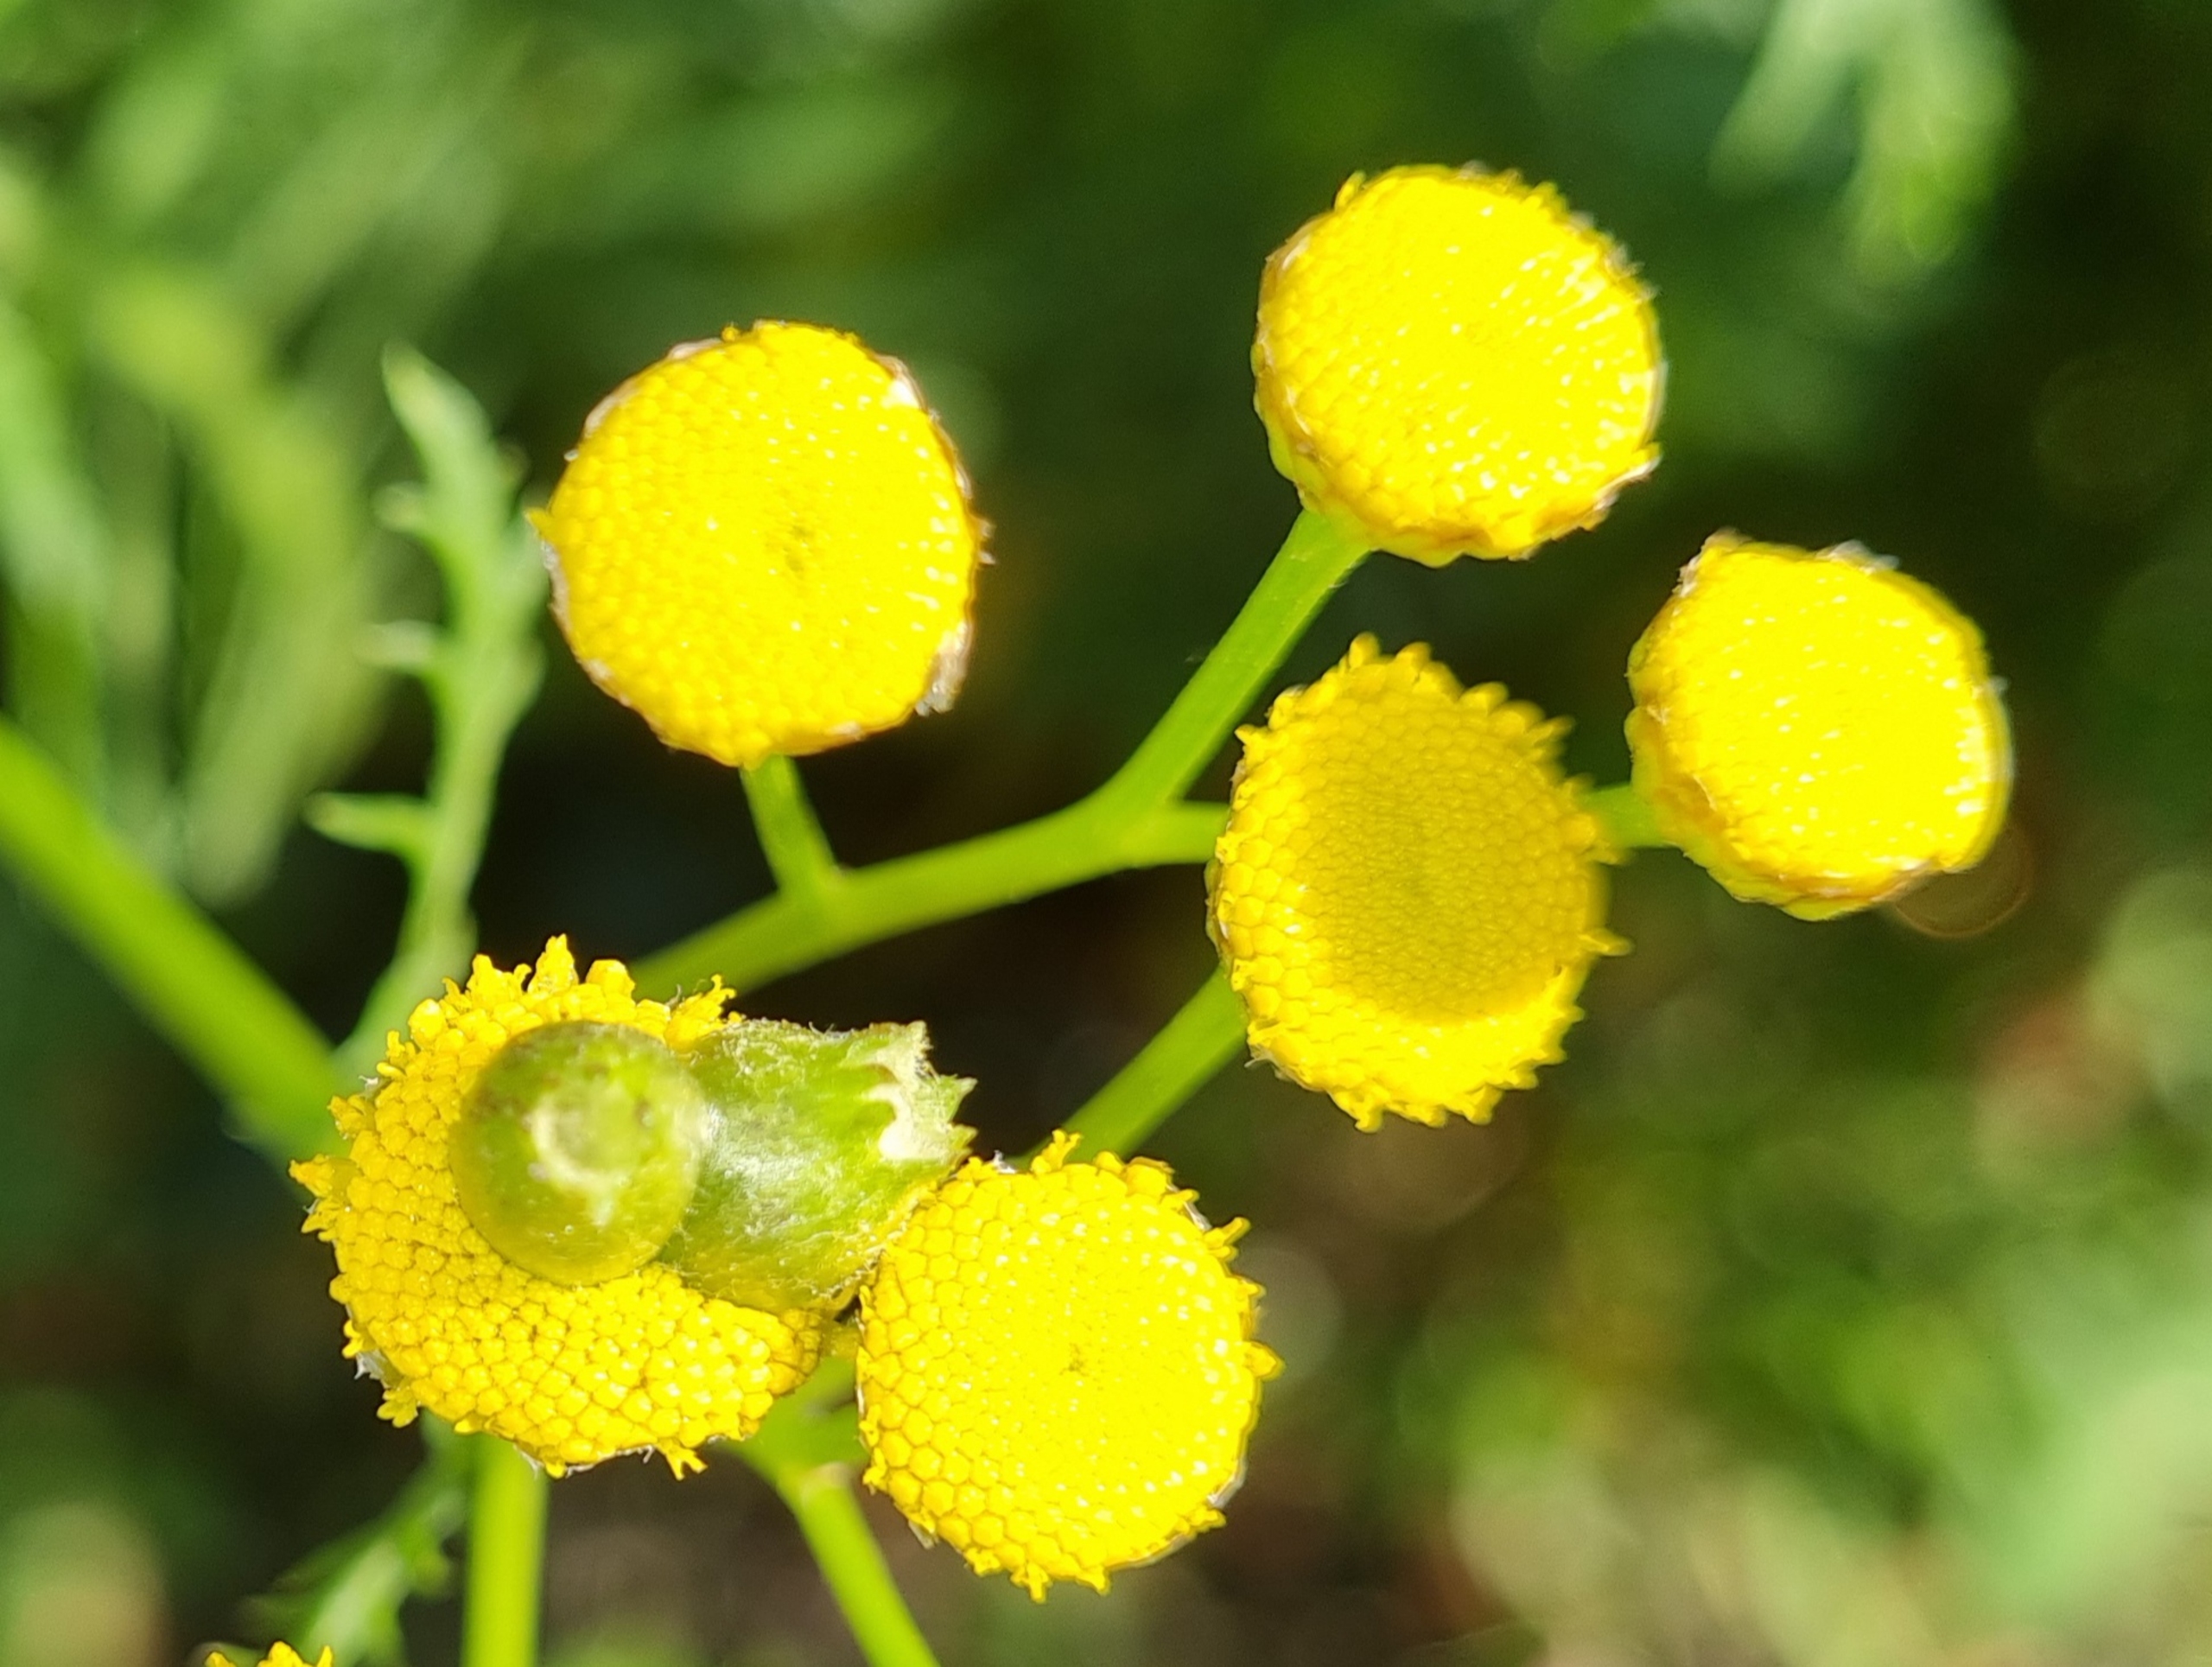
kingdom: Animalia
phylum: Arthropoda
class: Insecta
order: Diptera
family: Cecidomyiidae
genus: Rhopalomyia
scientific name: Rhopalomyia tanaceticolus
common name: Rejnfangalmyg
